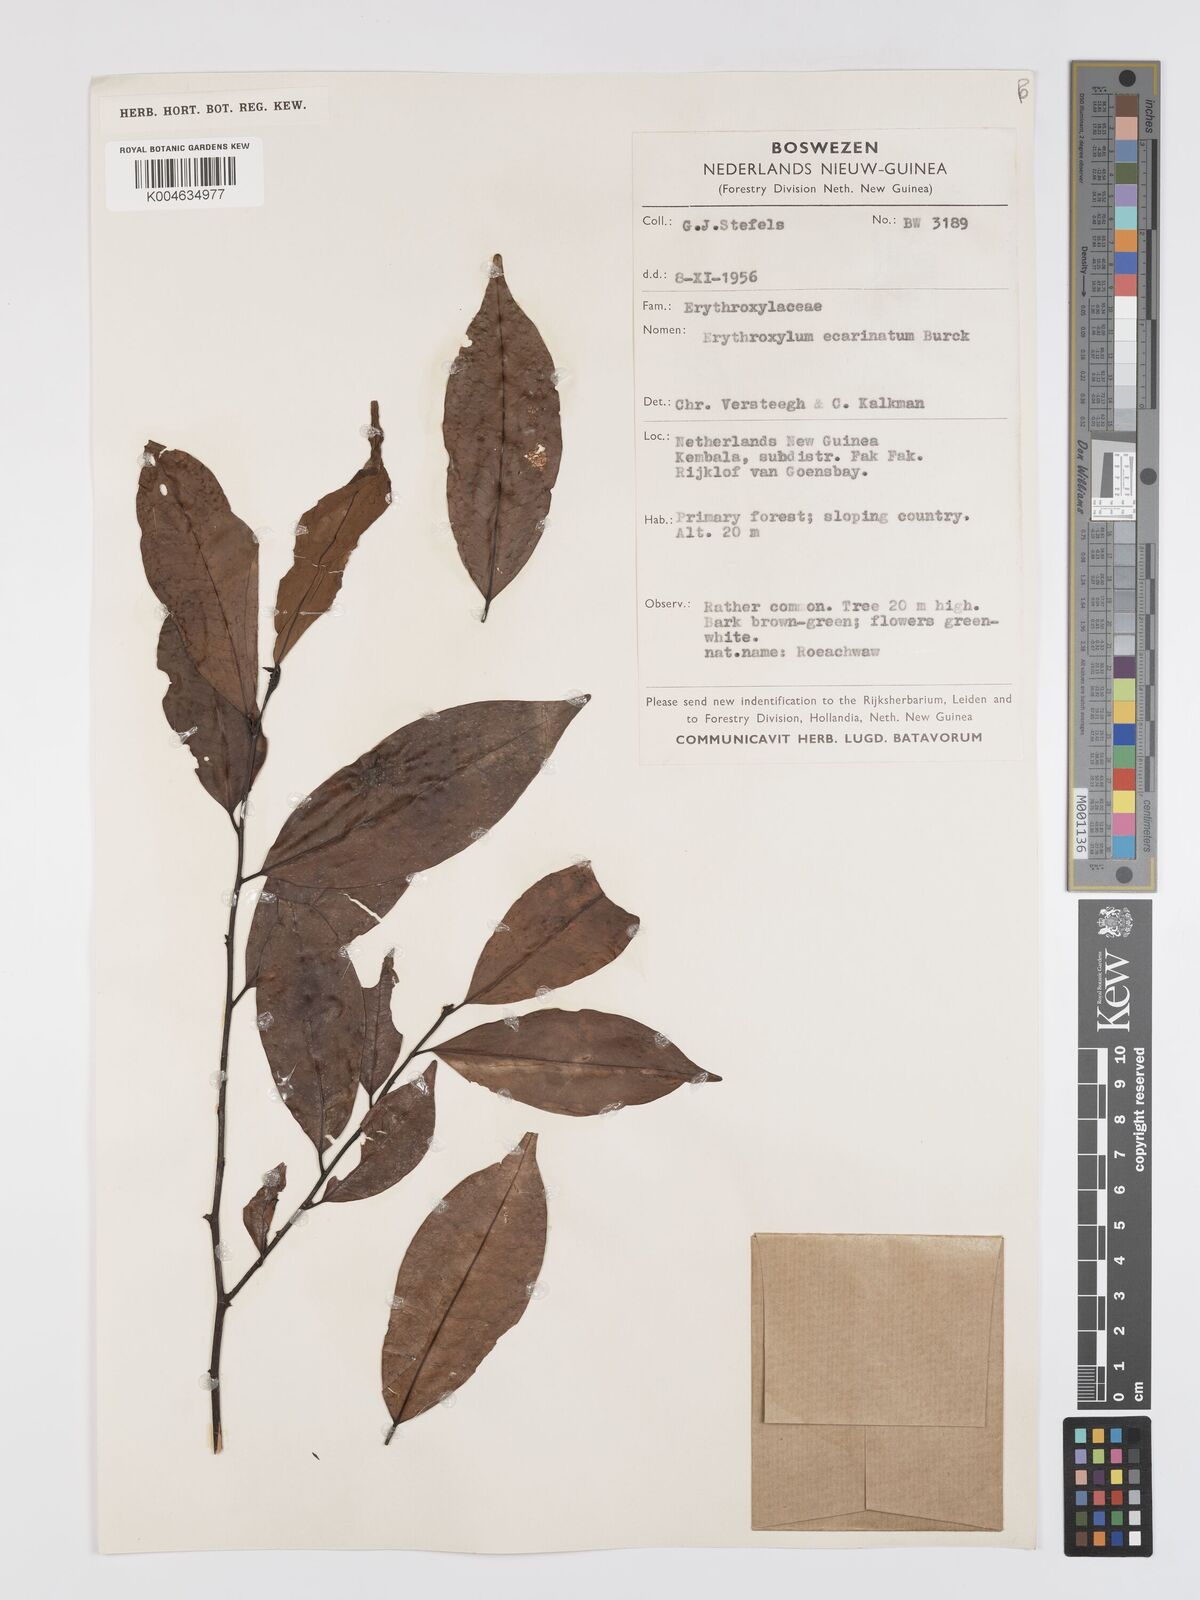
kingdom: Plantae
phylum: Tracheophyta
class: Magnoliopsida
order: Malpighiales
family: Erythroxylaceae
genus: Erythroxylum
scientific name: Erythroxylum ecarinatum
